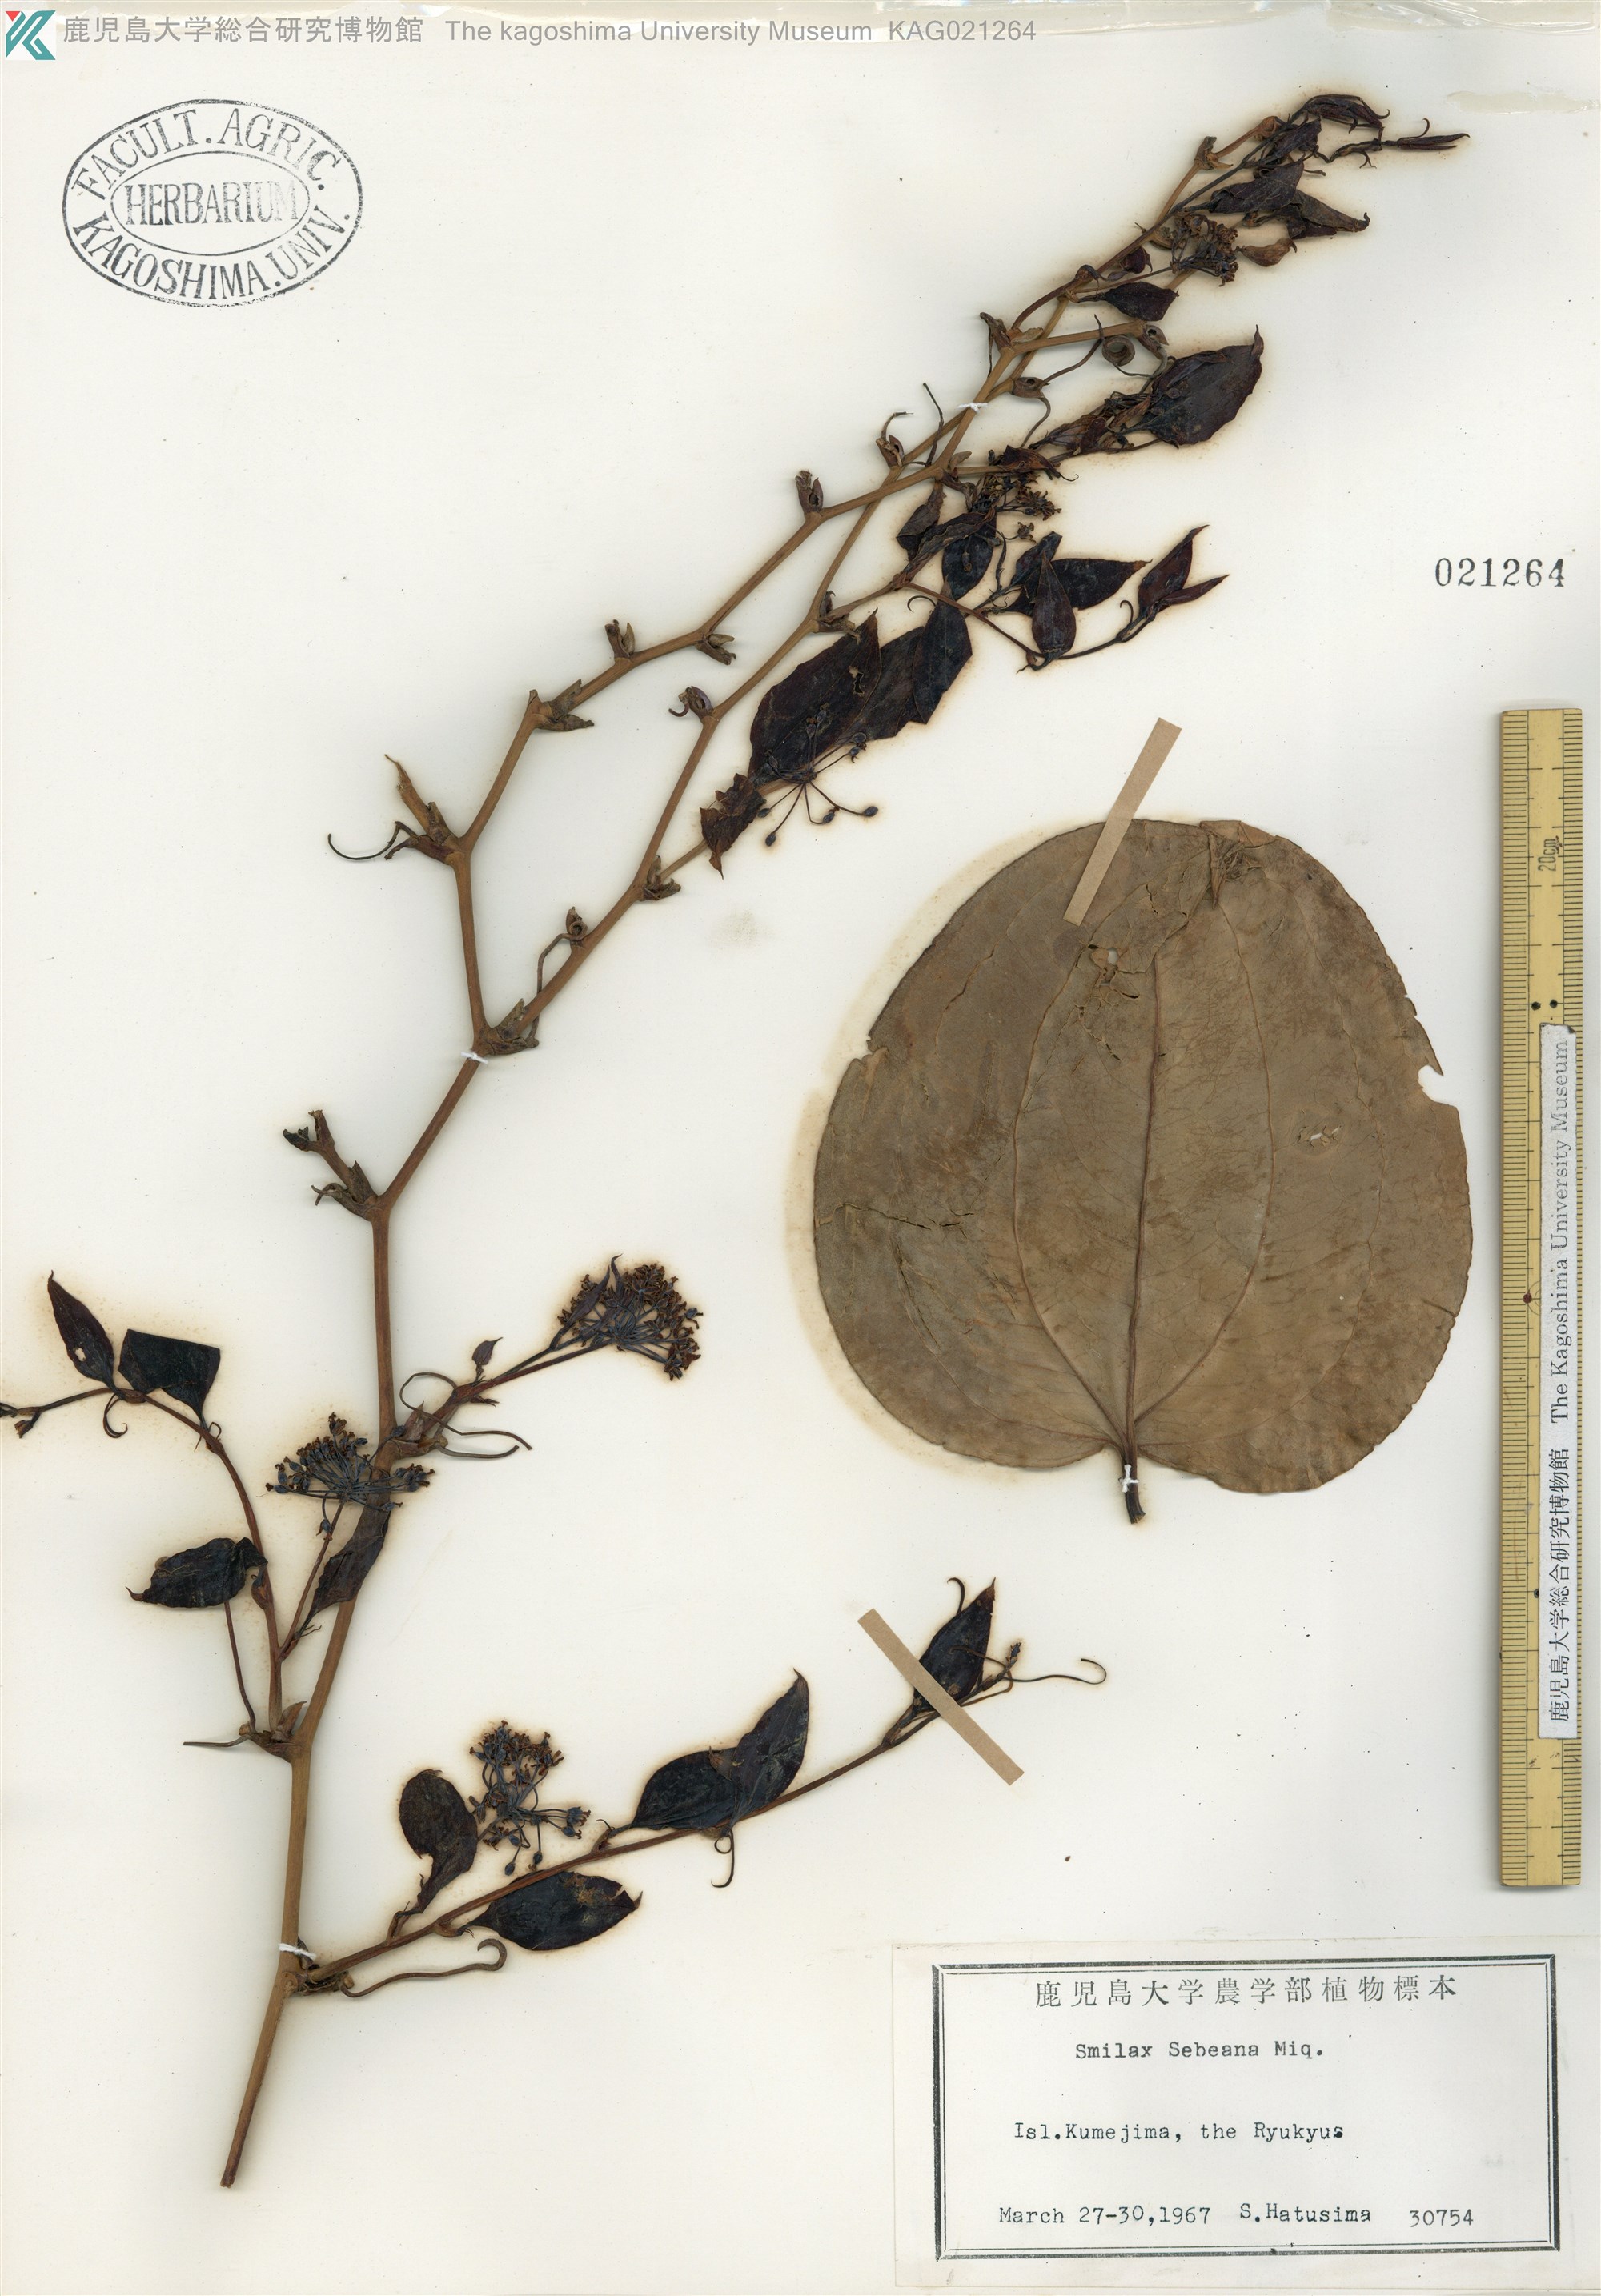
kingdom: Plantae
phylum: Tracheophyta
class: Liliopsida
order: Liliales
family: Smilacaceae
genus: Smilax
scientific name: Smilax sebeana
